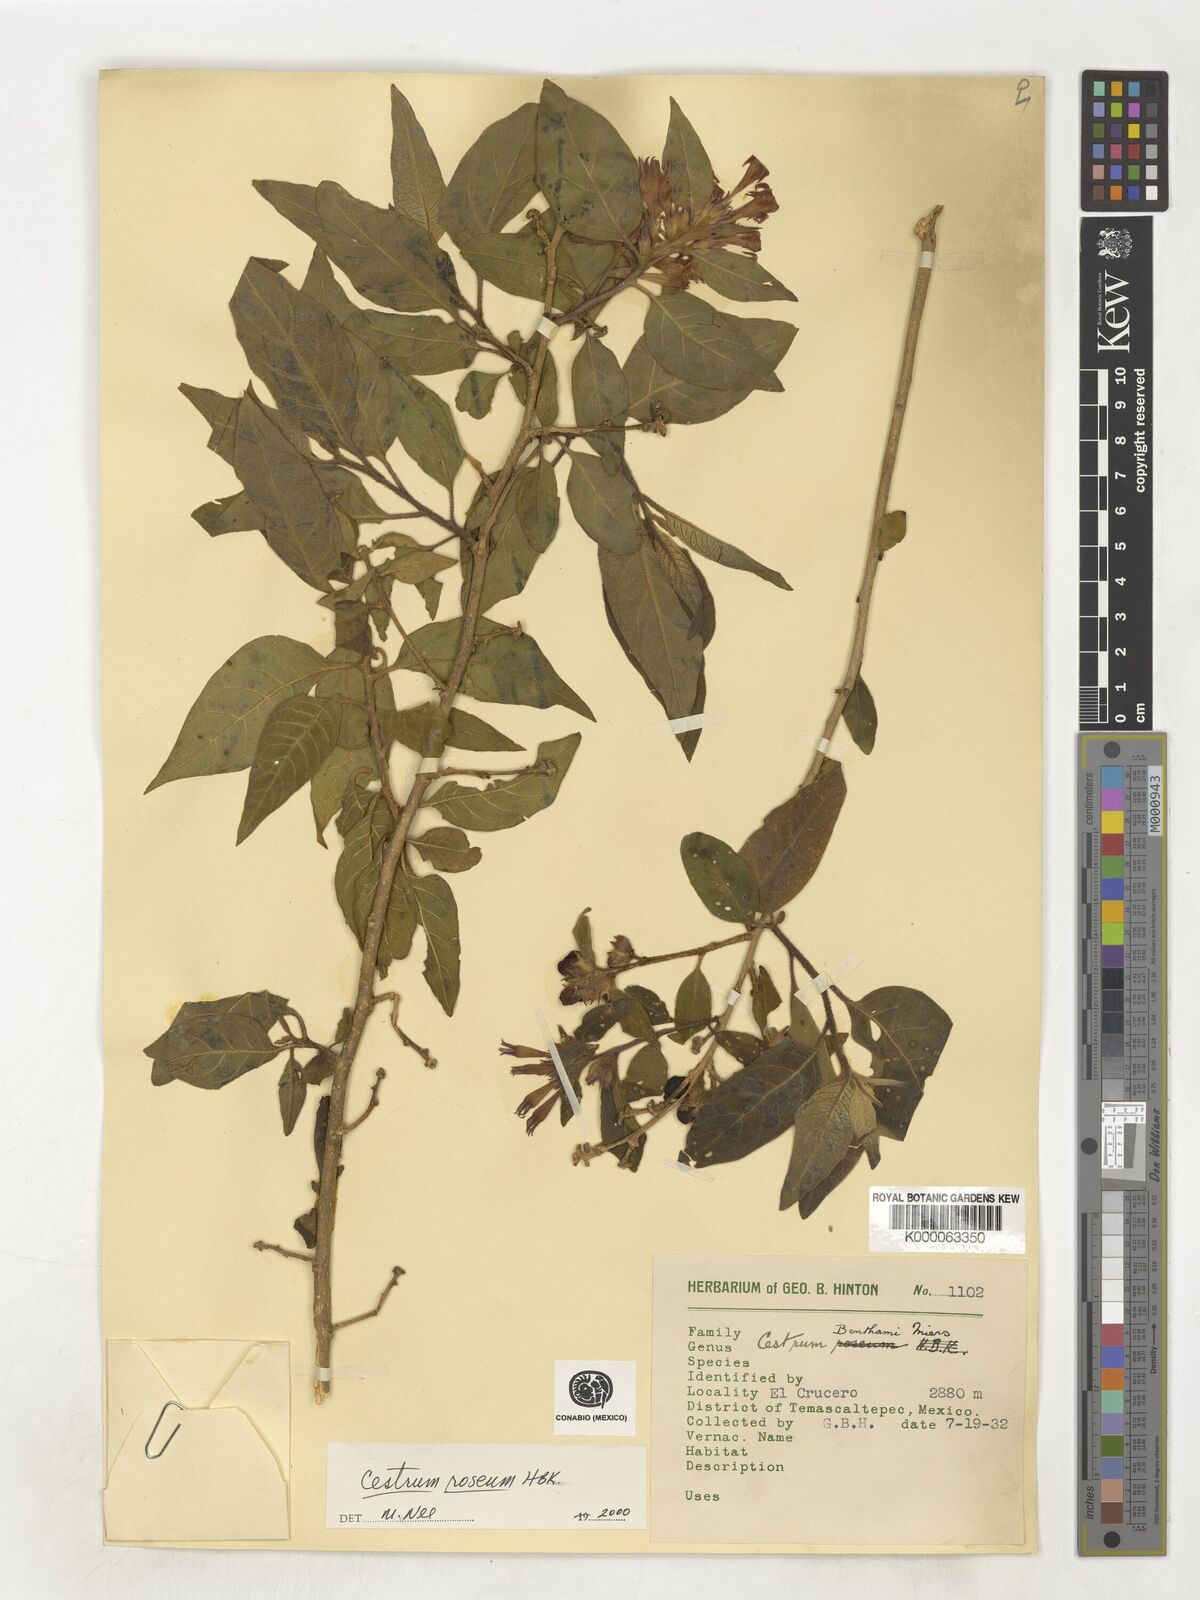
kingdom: Plantae
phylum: Tracheophyta
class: Magnoliopsida
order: Solanales
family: Solanaceae
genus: Cestrum
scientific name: Cestrum
